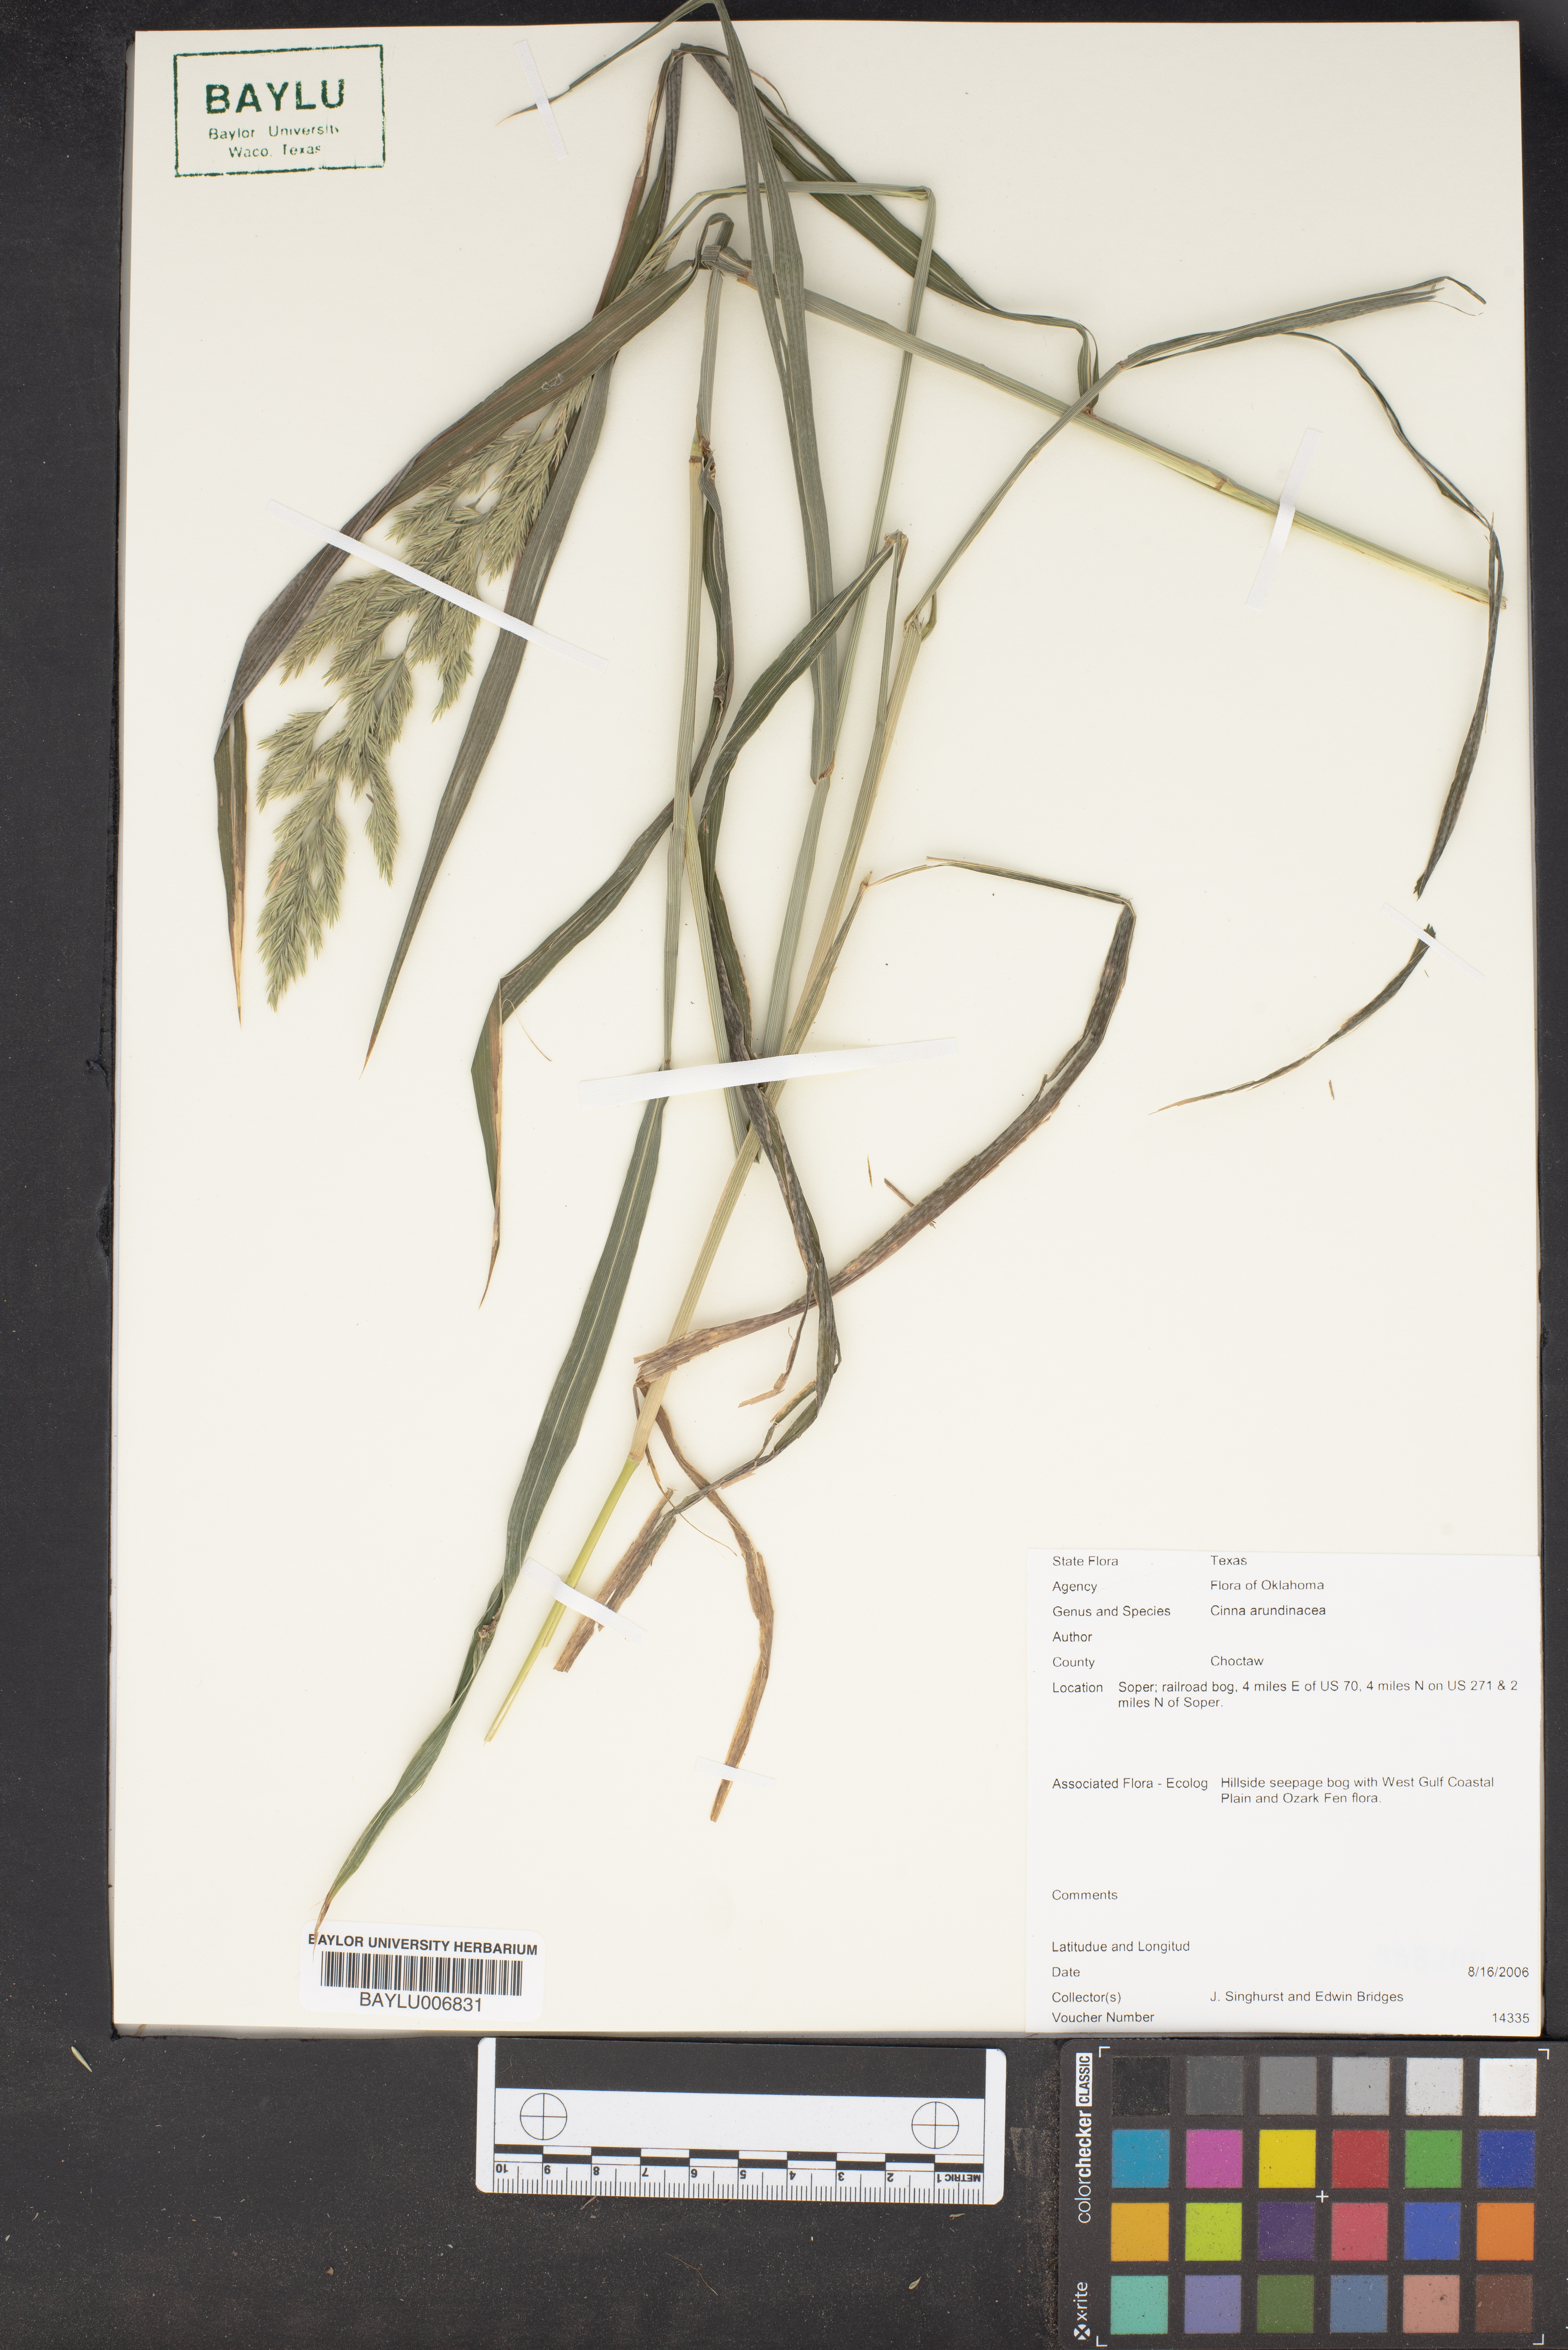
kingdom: Plantae
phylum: Tracheophyta
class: Liliopsida
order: Poales
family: Poaceae
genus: Cinna
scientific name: Cinna arundinacea
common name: Stout woodreed
